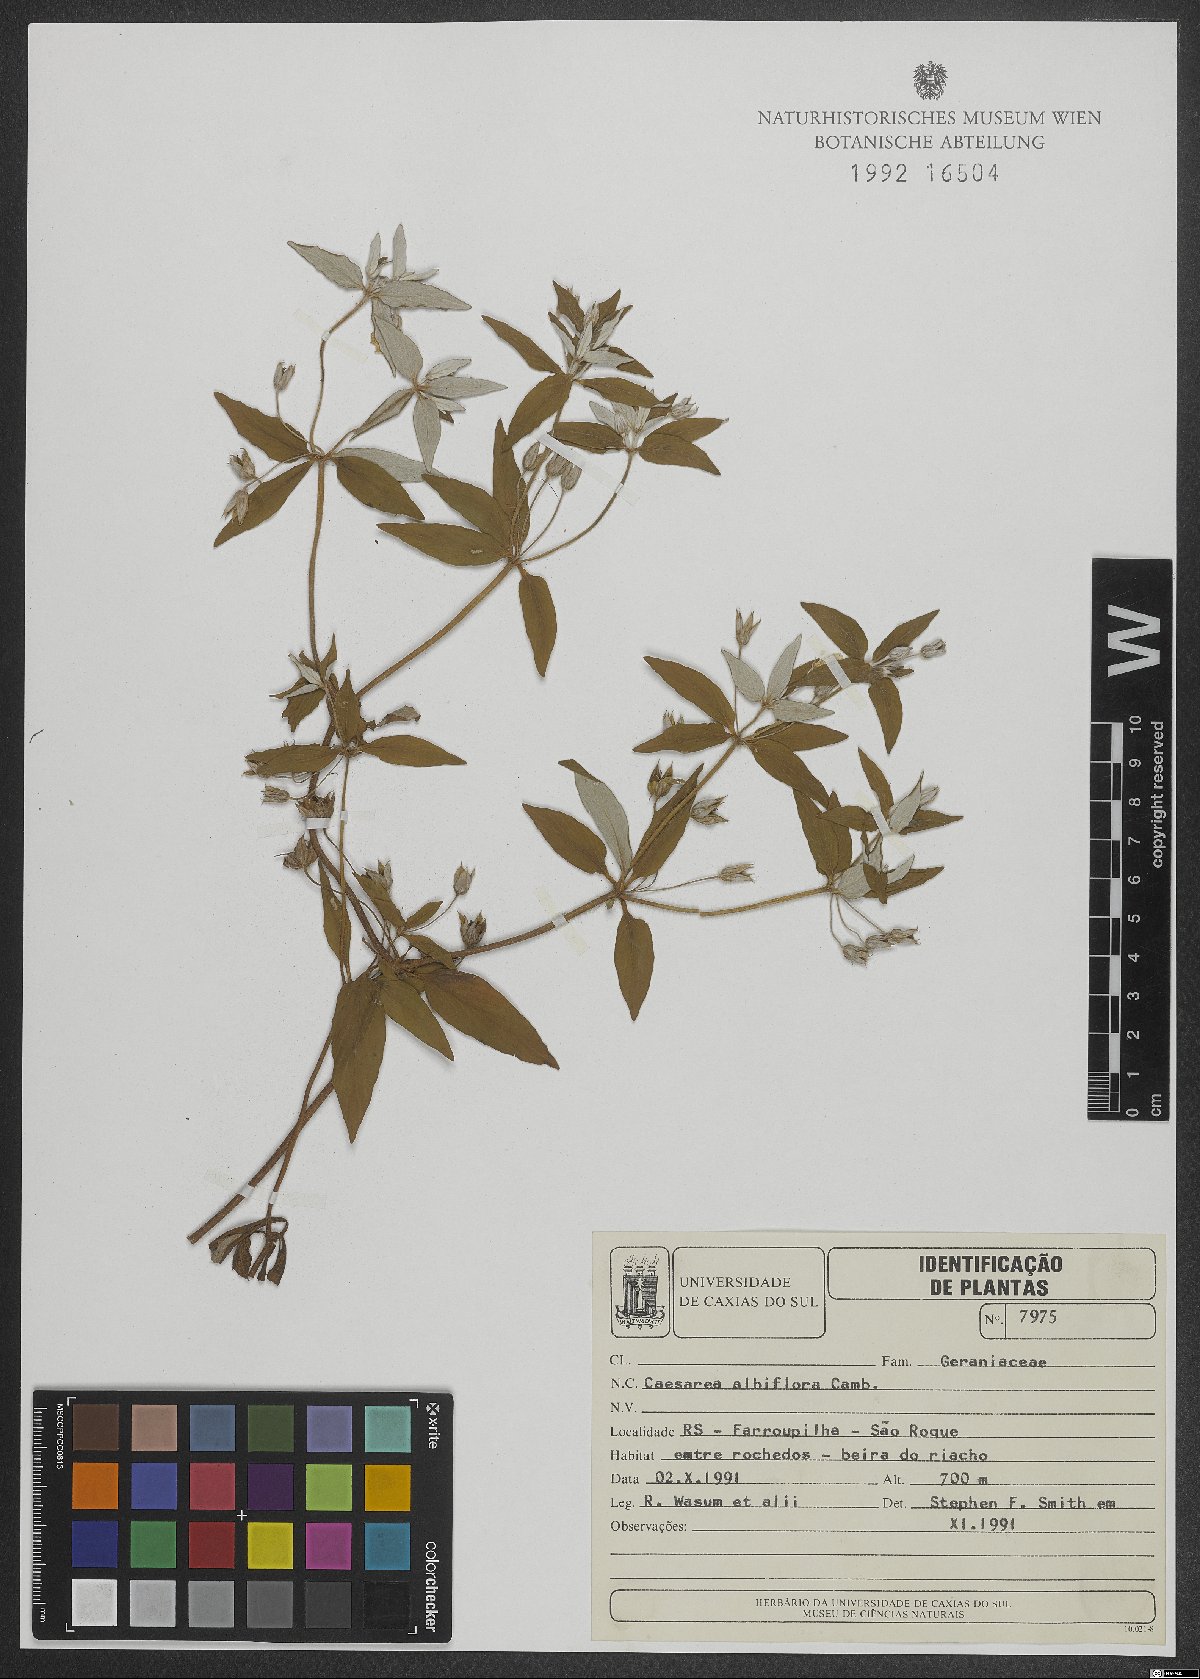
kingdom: Plantae
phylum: Tracheophyta
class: Magnoliopsida
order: Geraniales
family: Vivianiaceae
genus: Viviania
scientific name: Viviania albiflora
